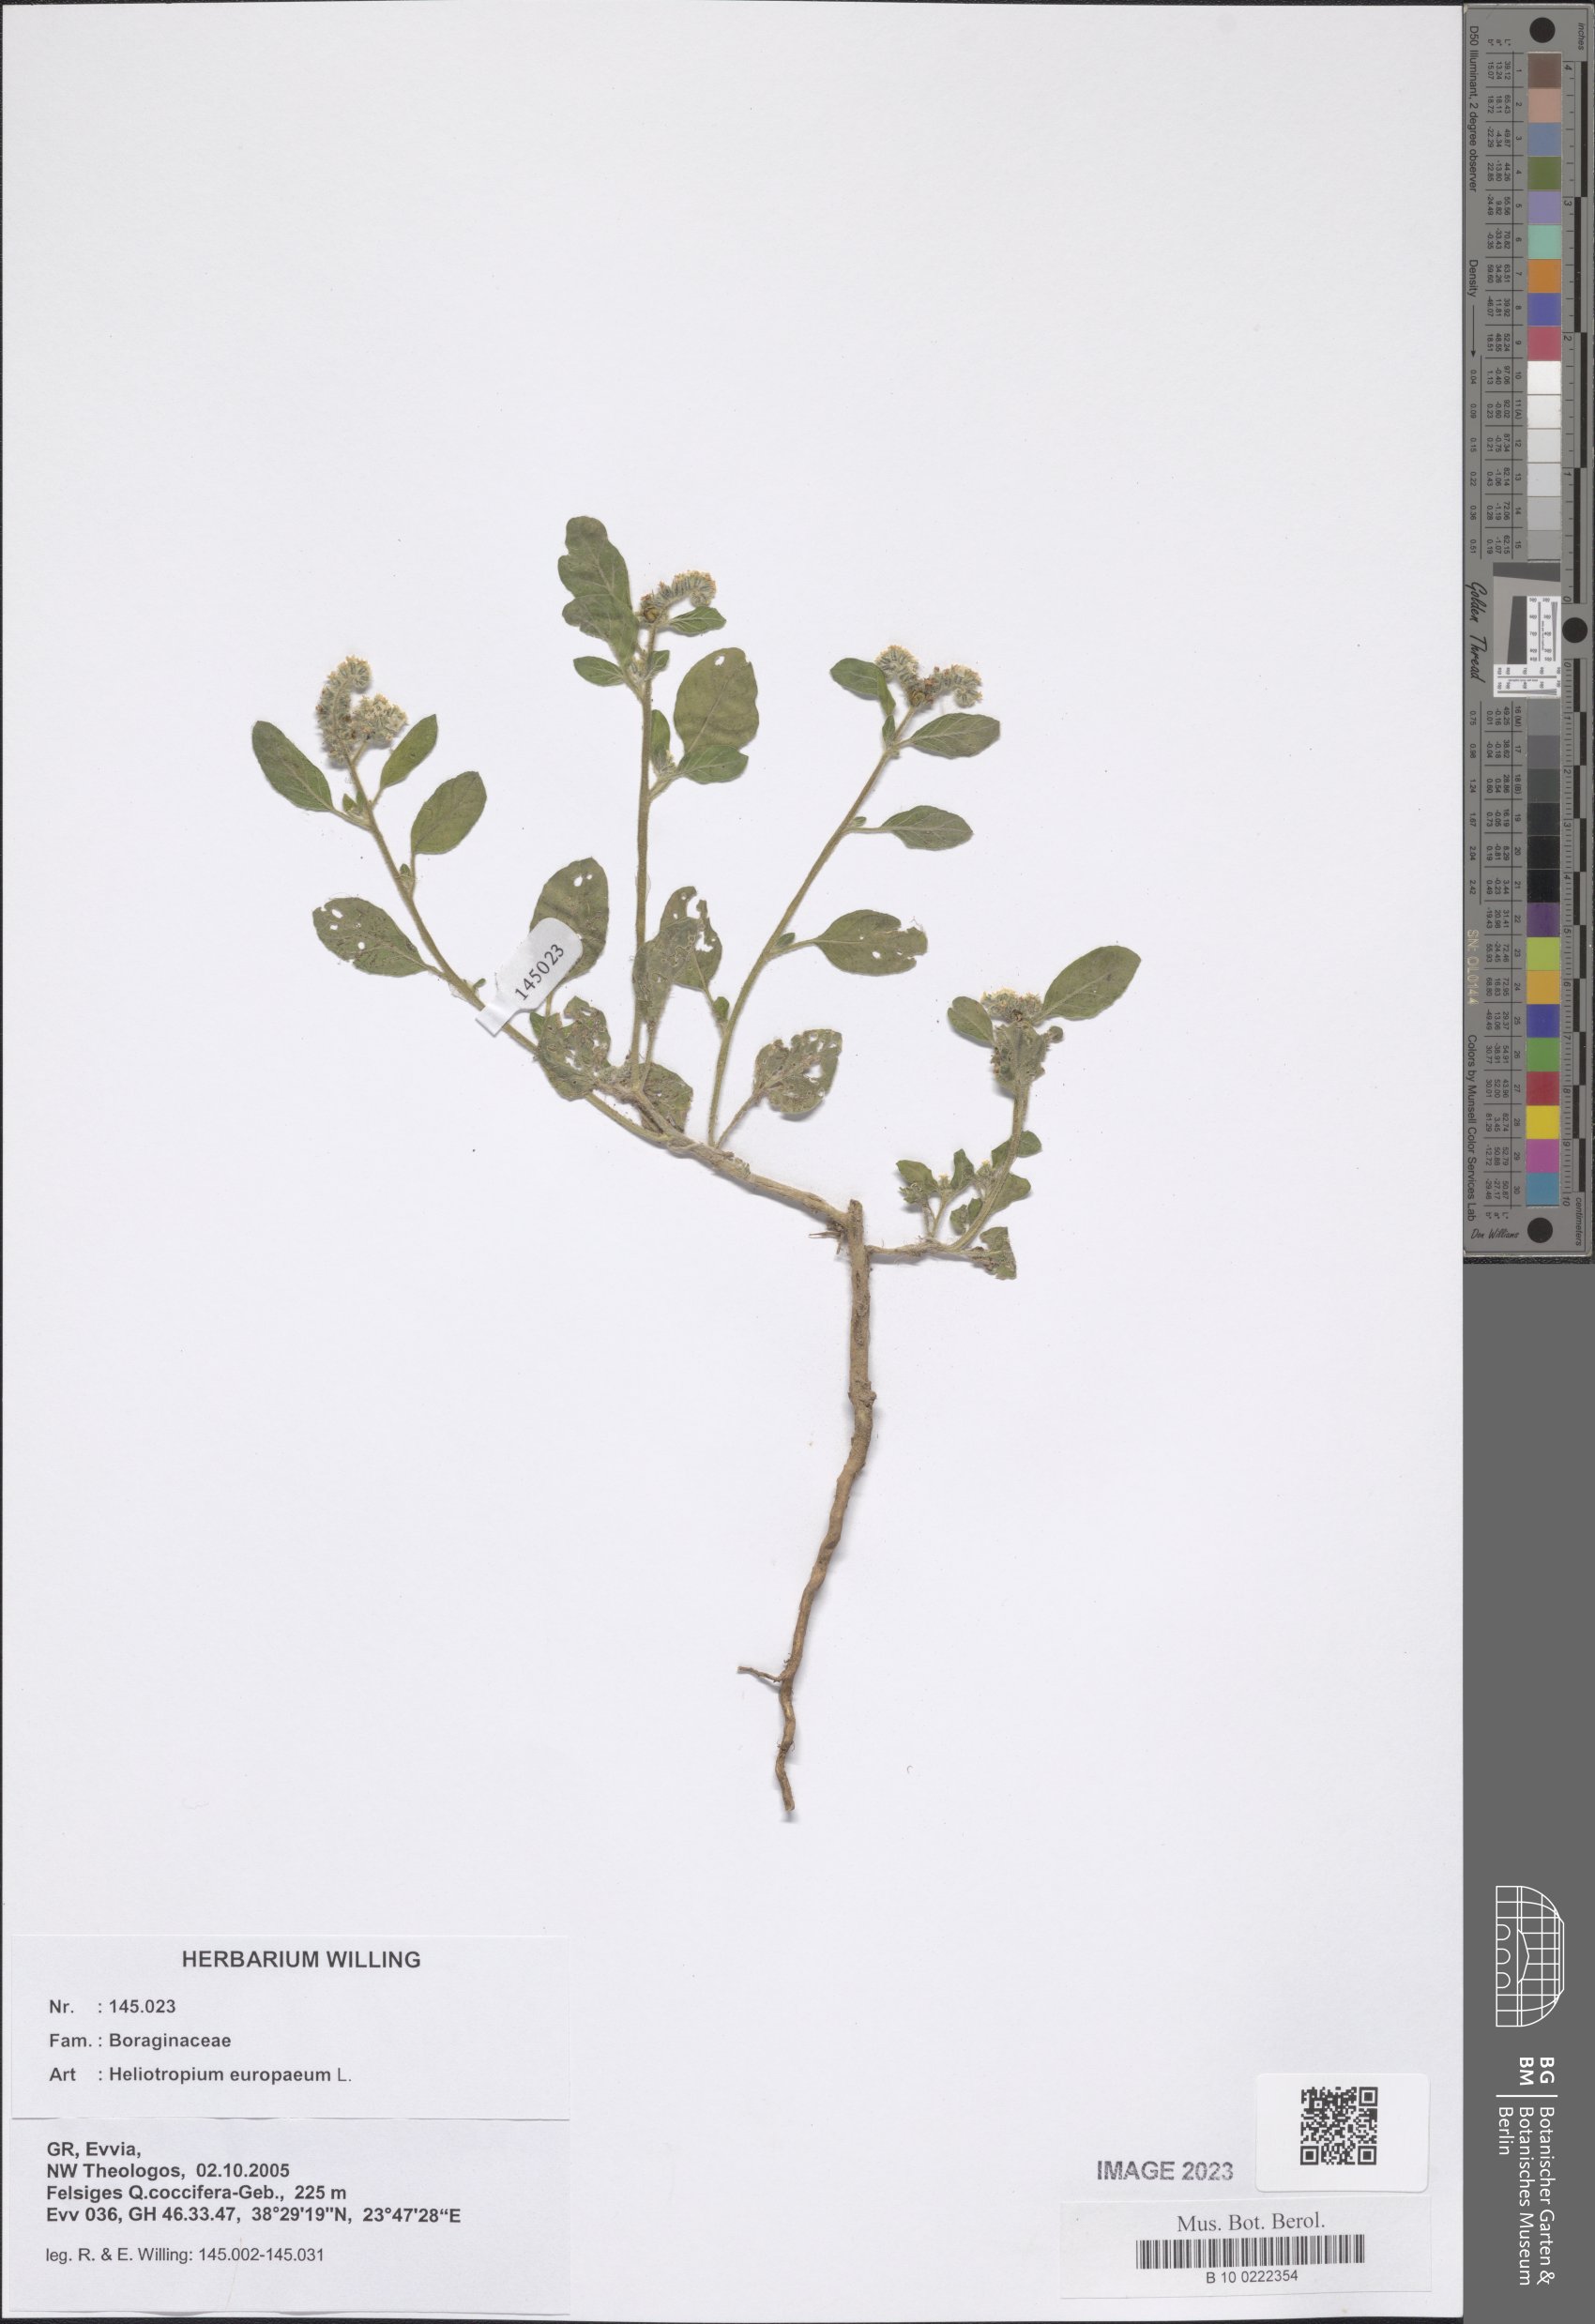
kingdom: Plantae
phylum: Tracheophyta
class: Magnoliopsida
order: Boraginales
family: Heliotropiaceae
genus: Heliotropium
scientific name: Heliotropium europaeum
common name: European heliotrope
